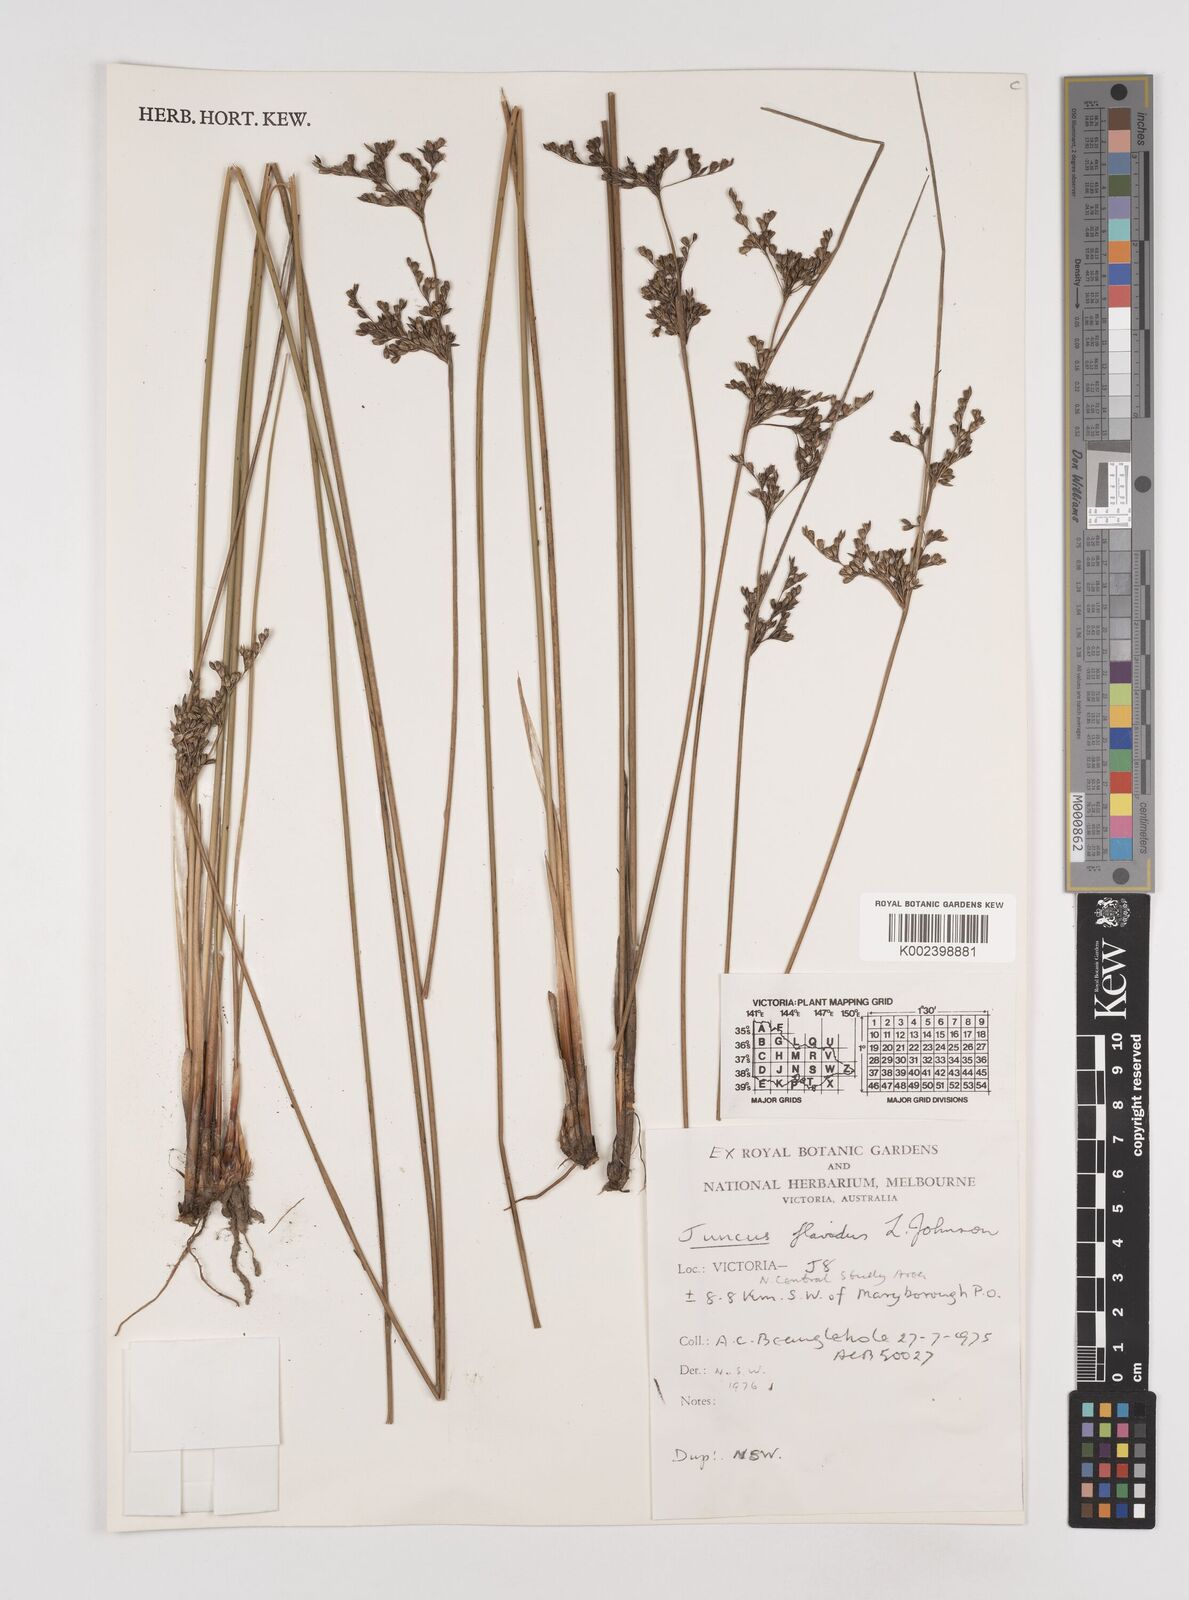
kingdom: Plantae
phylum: Tracheophyta
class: Liliopsida
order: Poales
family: Juncaceae
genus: Juncus
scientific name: Juncus flavidus
